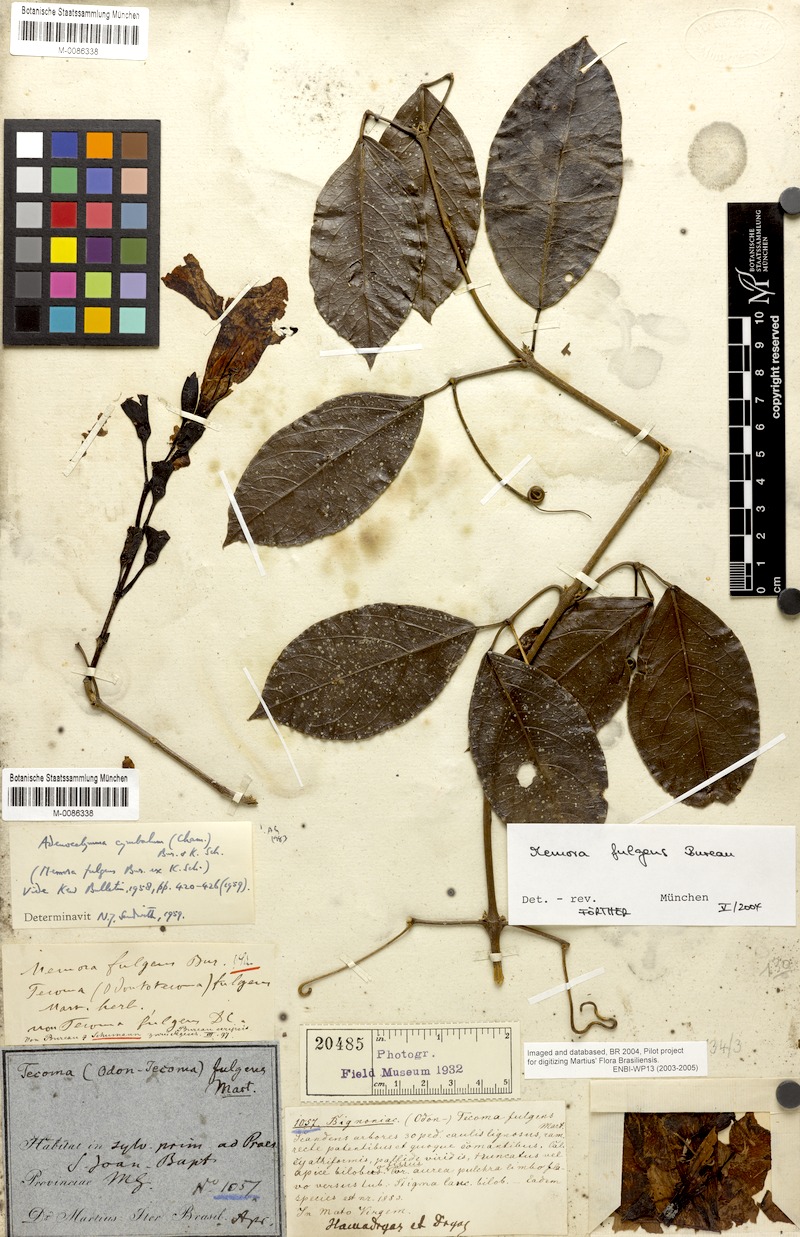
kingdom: Plantae
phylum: Tracheophyta
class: Magnoliopsida
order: Lamiales
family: Bignoniaceae
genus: Adenocalymma
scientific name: Adenocalymma cymbalum
